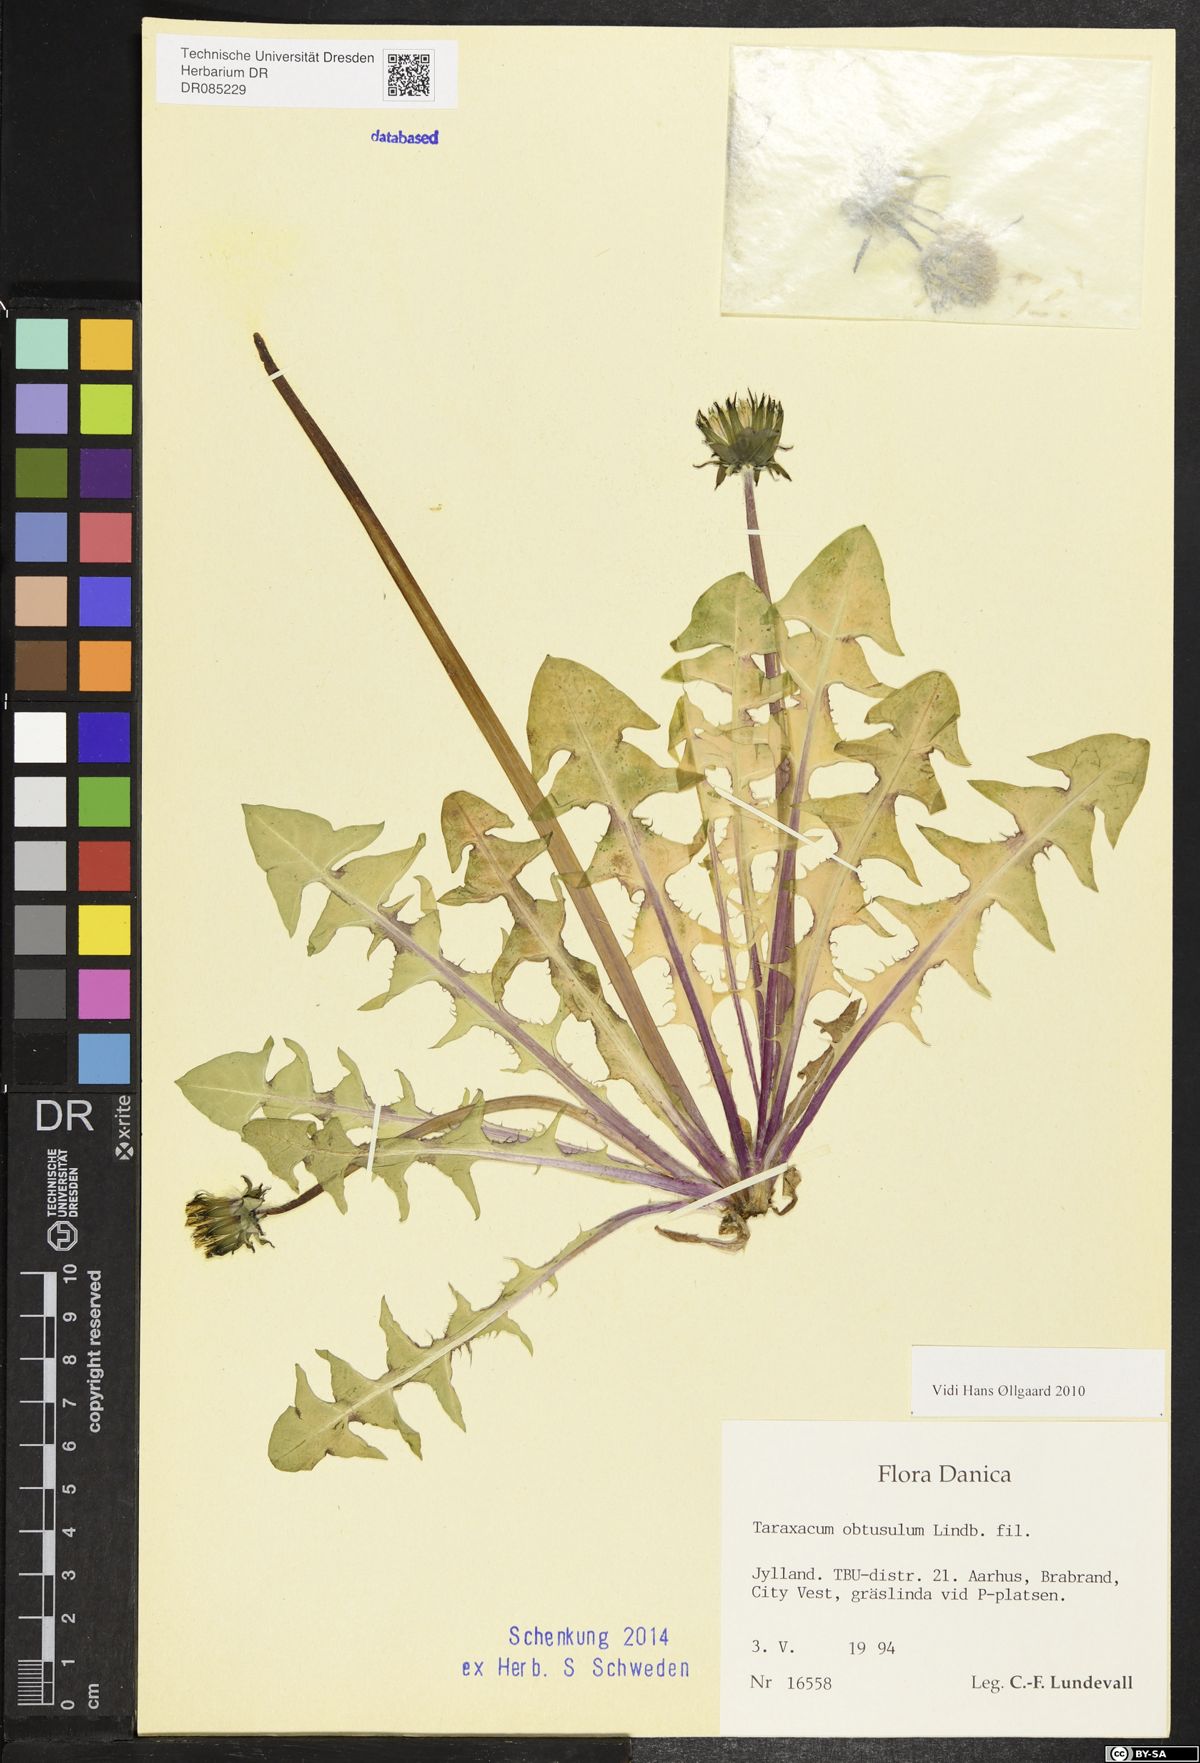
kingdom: Plantae
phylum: Tracheophyta
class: Magnoliopsida
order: Asterales
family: Asteraceae
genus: Taraxacum
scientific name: Taraxacum obtusulum
